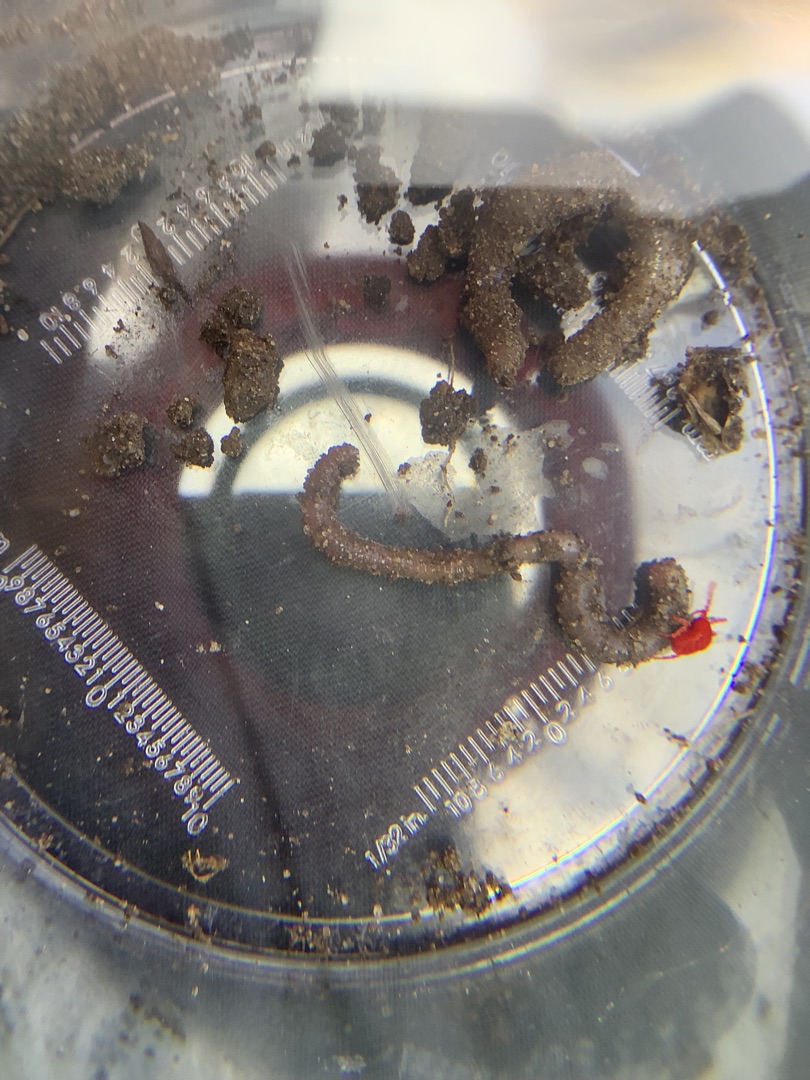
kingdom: Animalia
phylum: Annelida
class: Clitellata
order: Crassiclitellata
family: Lumbricidae
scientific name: Lumbricidae
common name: Regnorme
